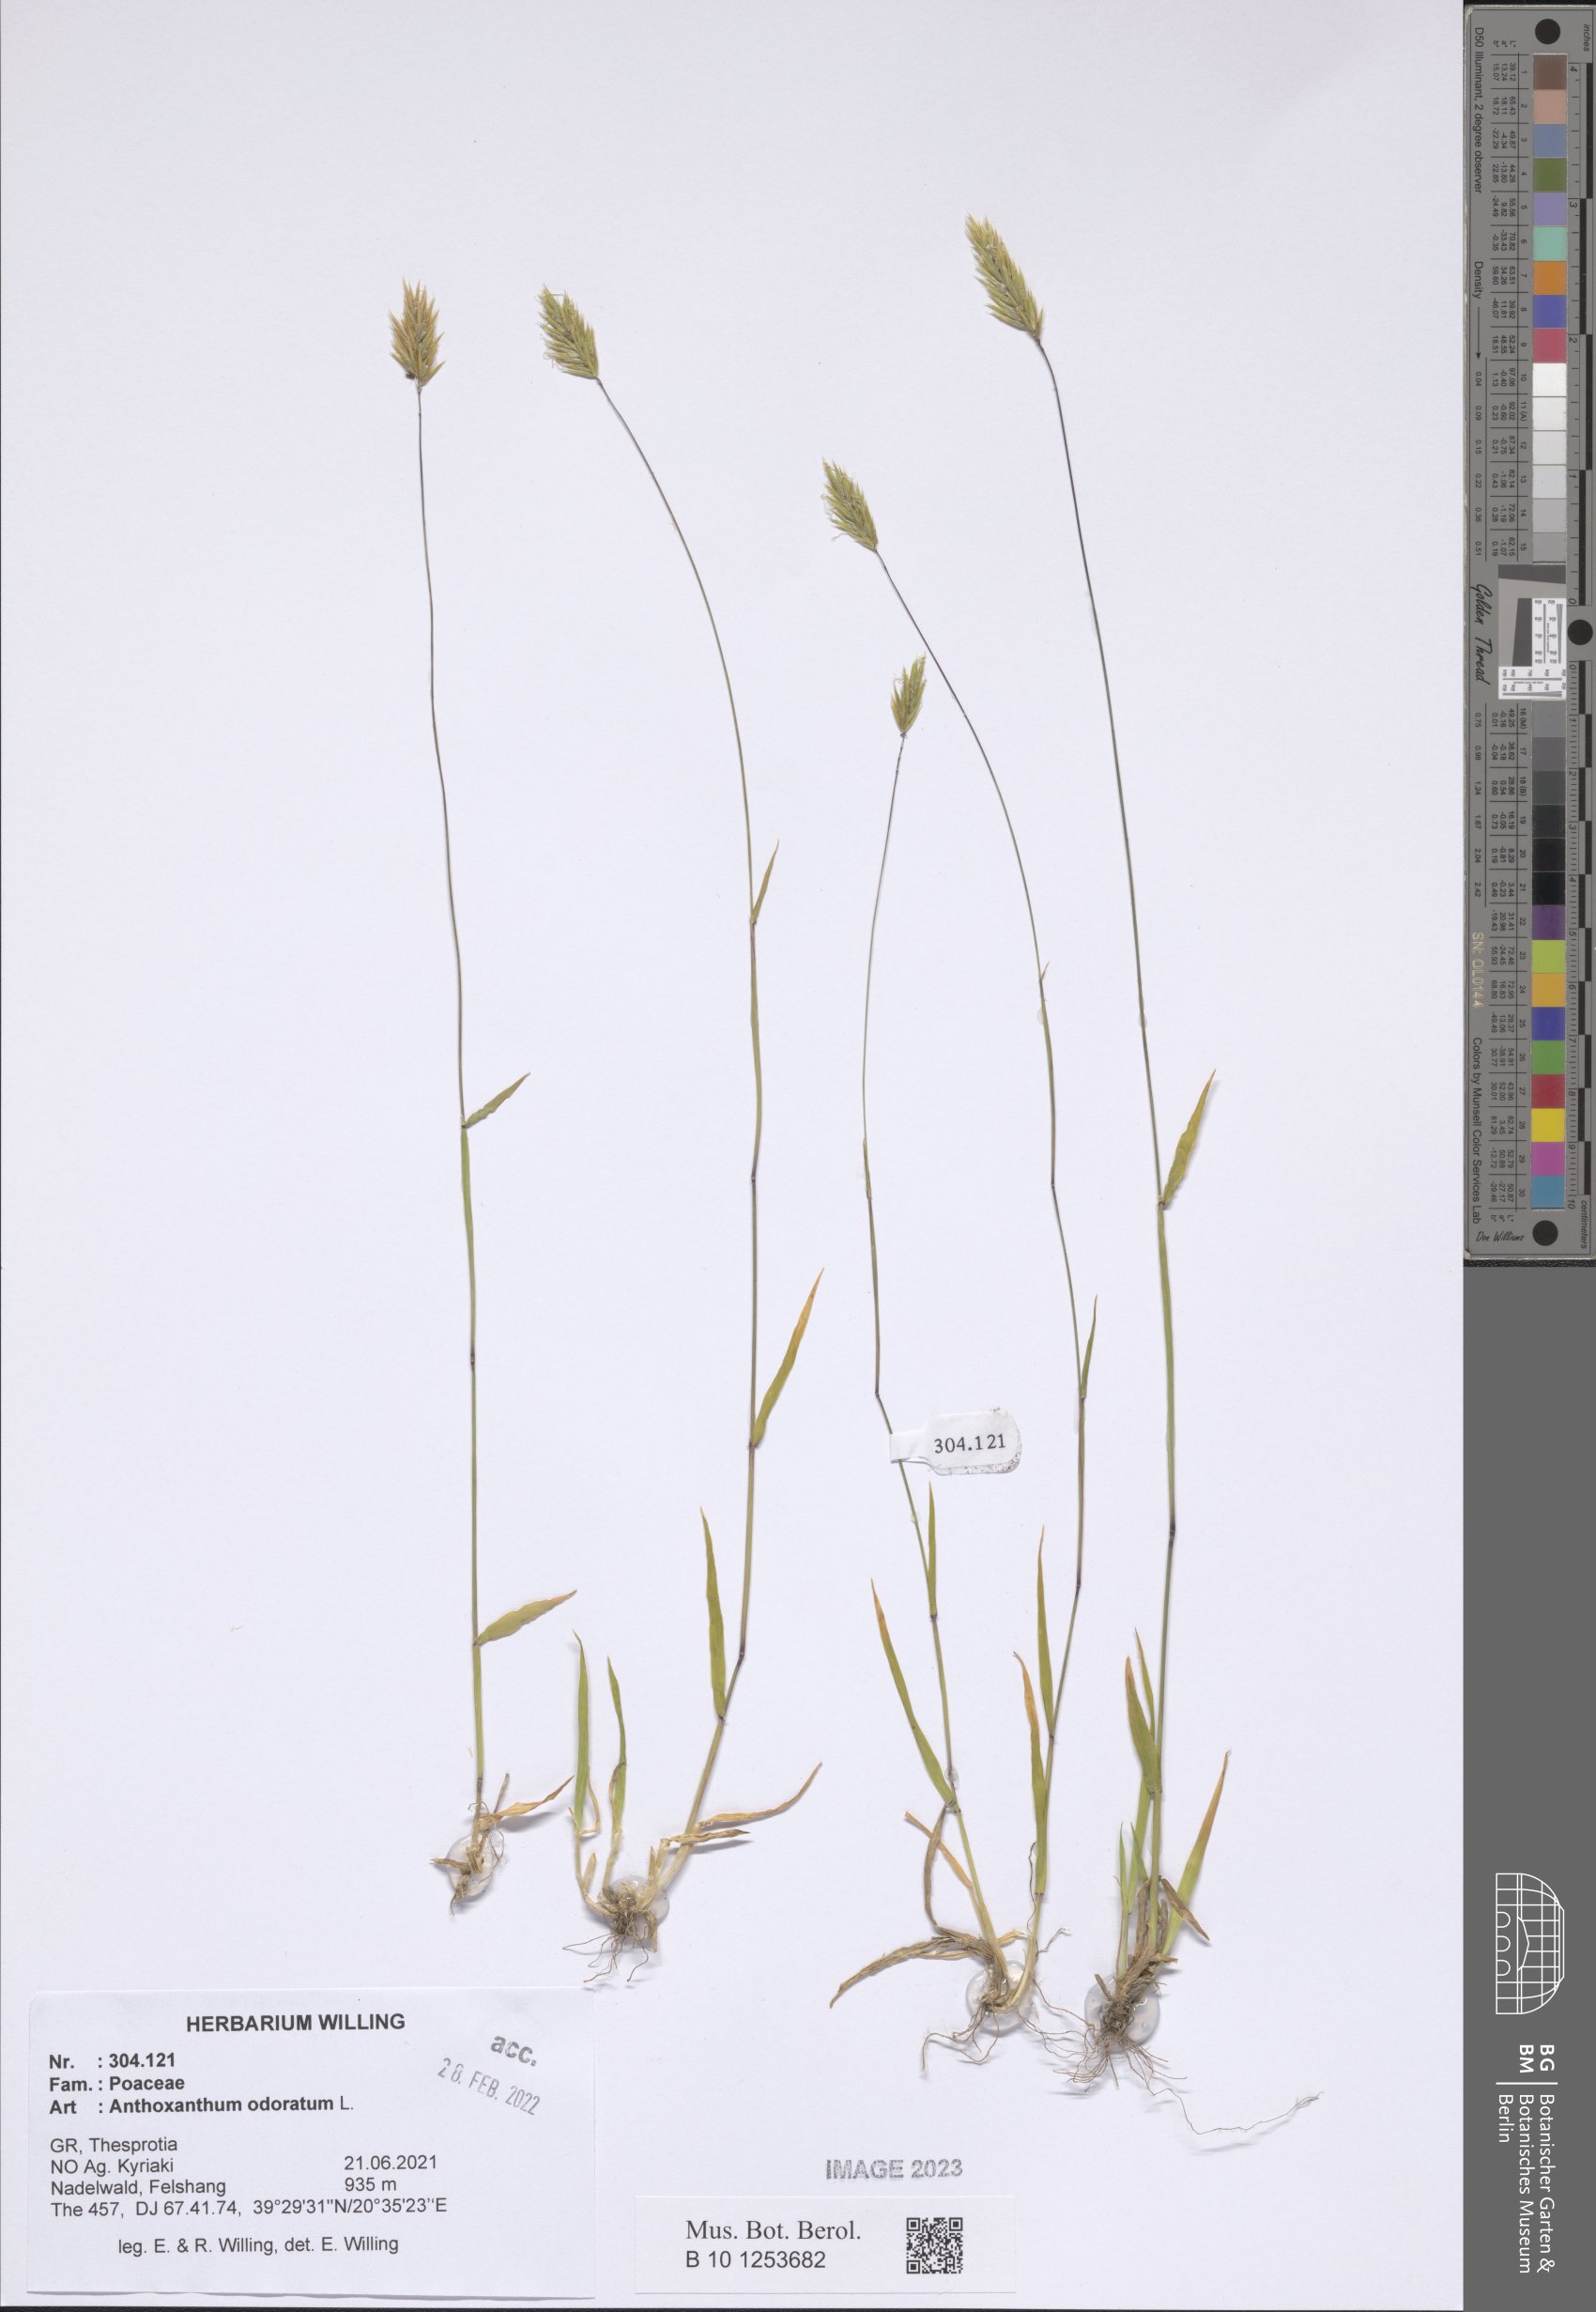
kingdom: Plantae
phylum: Tracheophyta
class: Liliopsida
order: Poales
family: Poaceae
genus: Anthoxanthum
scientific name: Anthoxanthum odoratum
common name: Sweet vernalgrass
